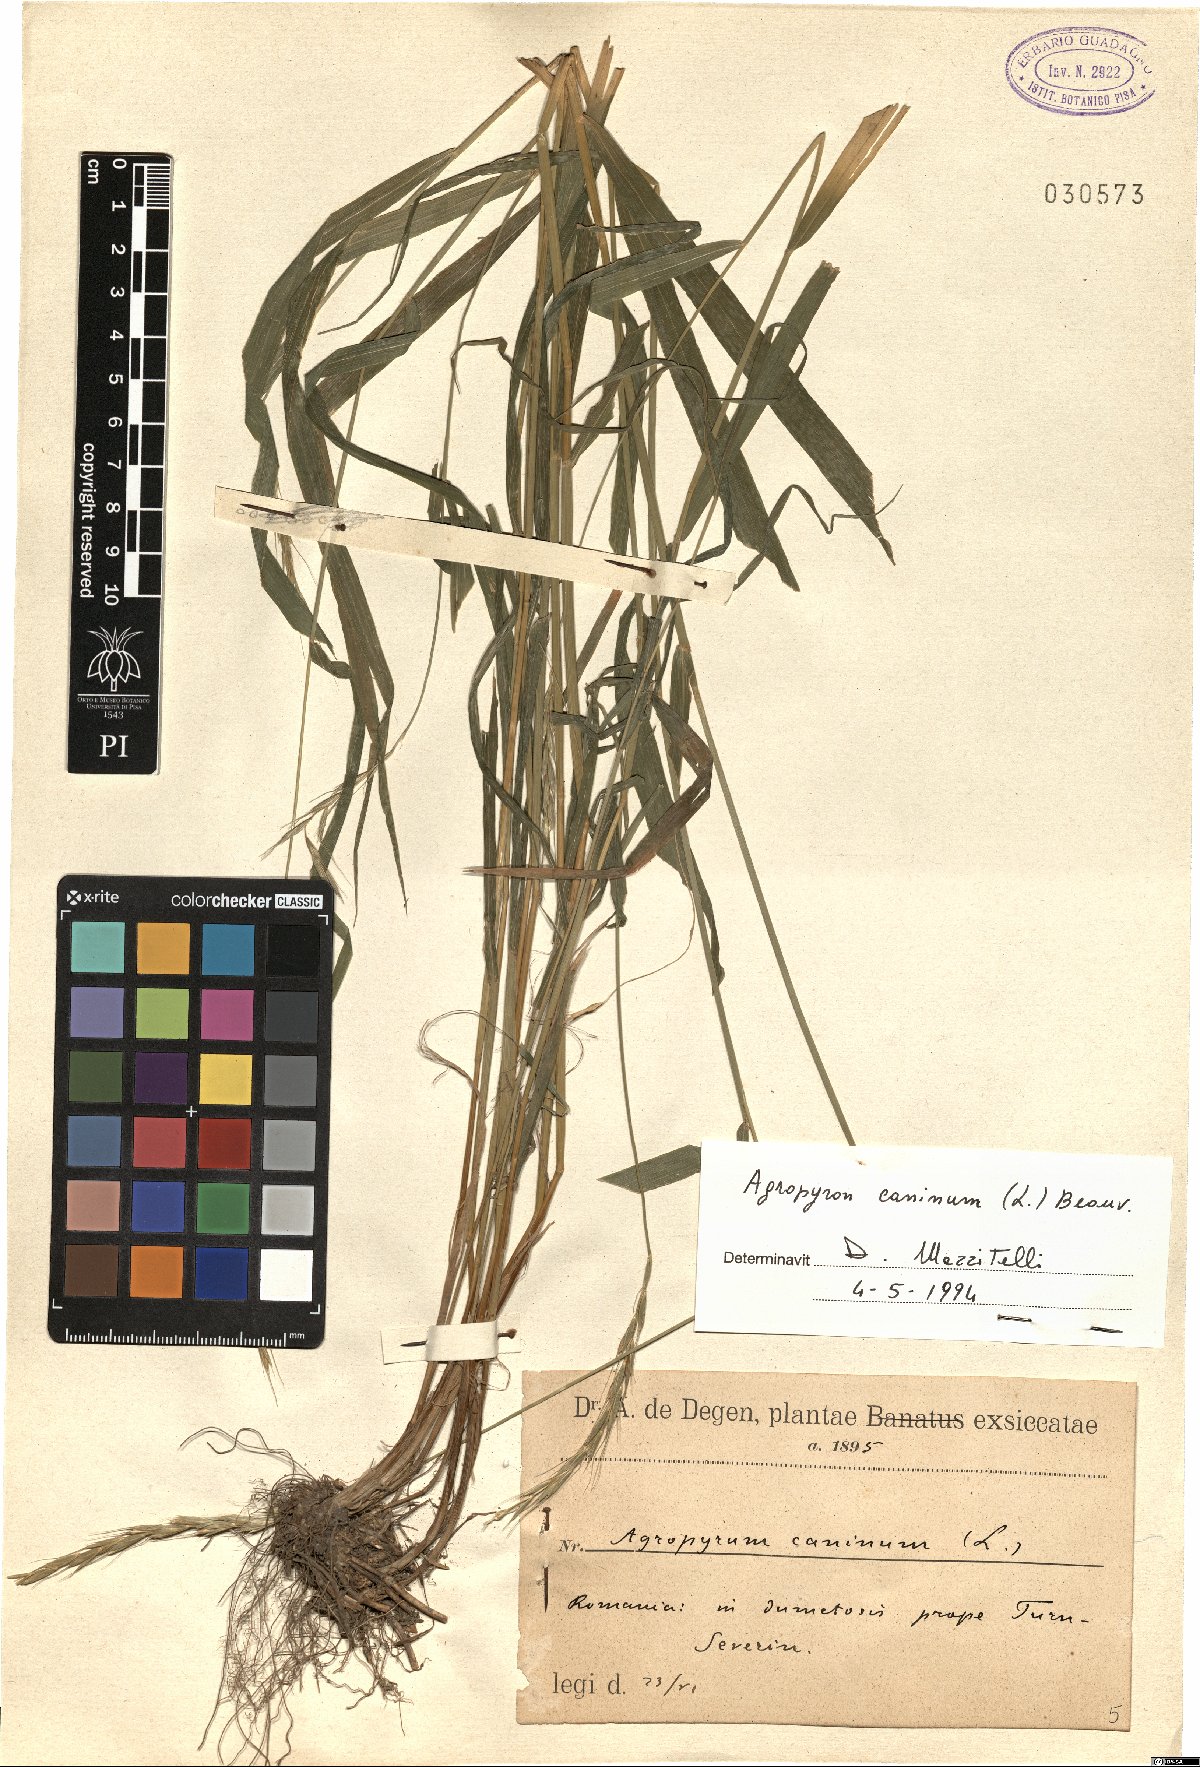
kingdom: Plantae
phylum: Tracheophyta
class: Liliopsida
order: Poales
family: Poaceae
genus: Elymus
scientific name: Elymus caninus
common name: Bearded couch
